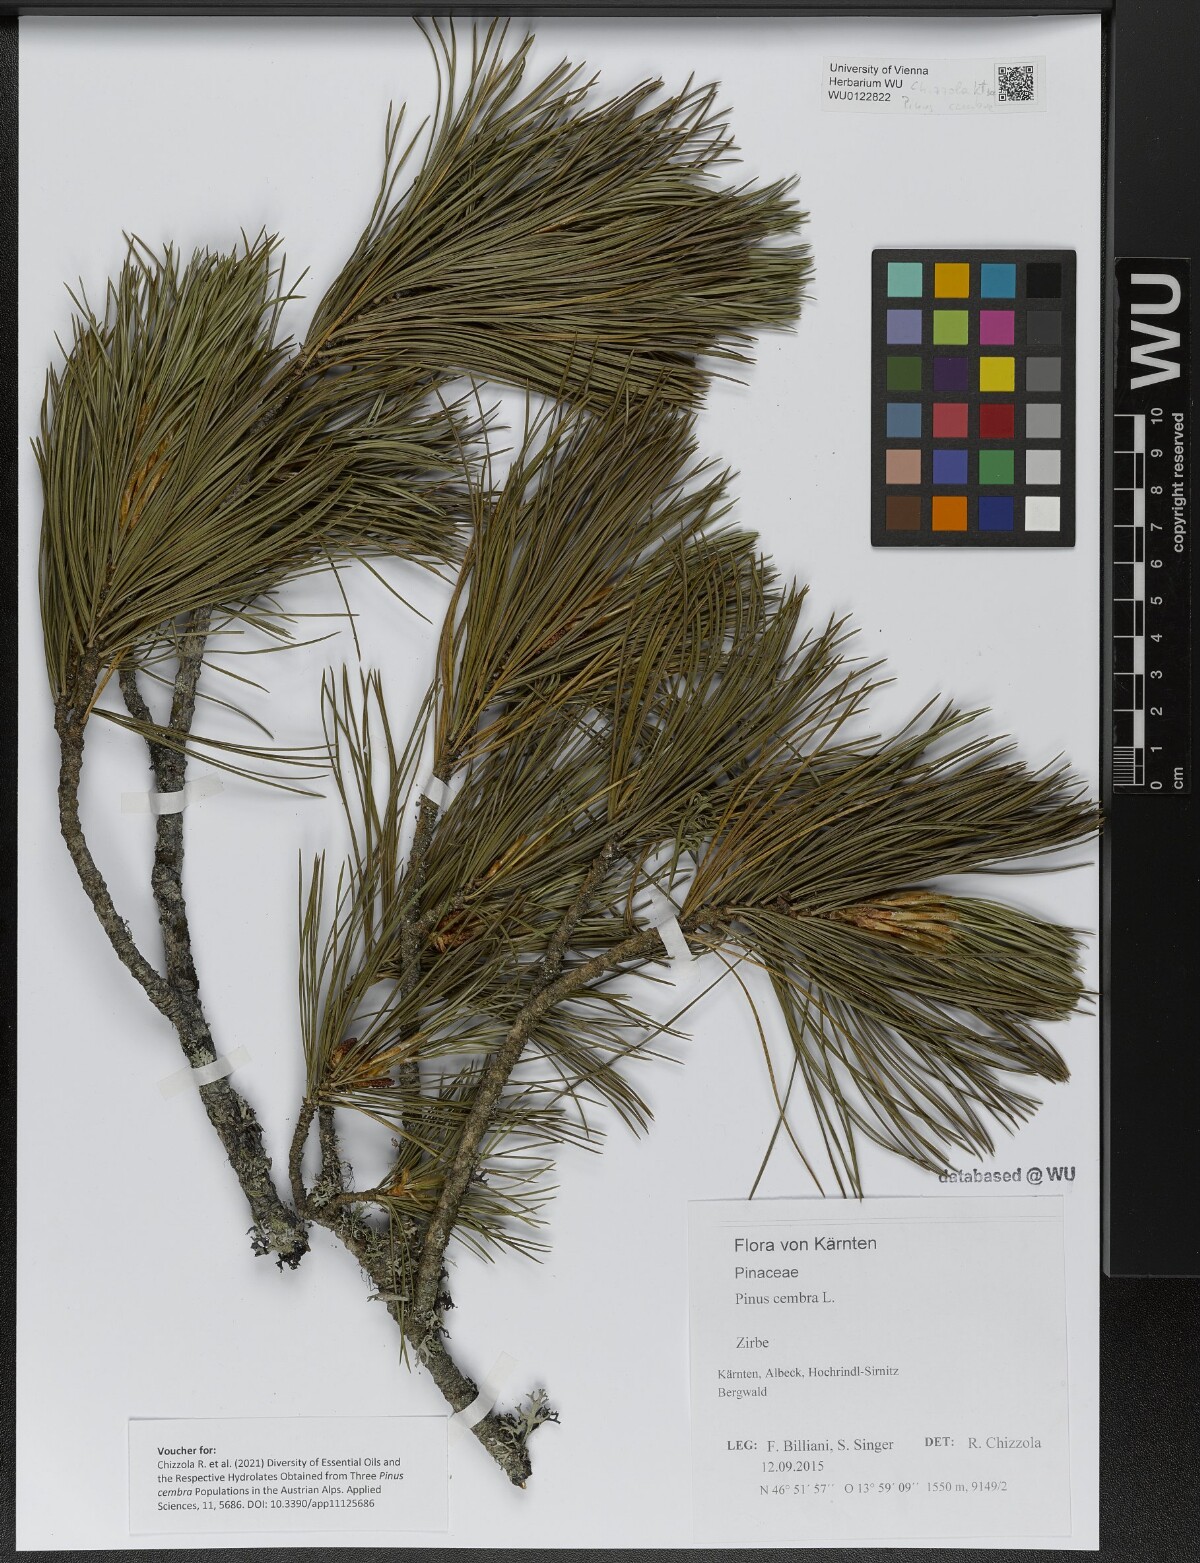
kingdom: Plantae
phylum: Tracheophyta
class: Pinopsida
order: Pinales
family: Pinaceae
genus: Pinus
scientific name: Pinus cembra
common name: Arolla pine
